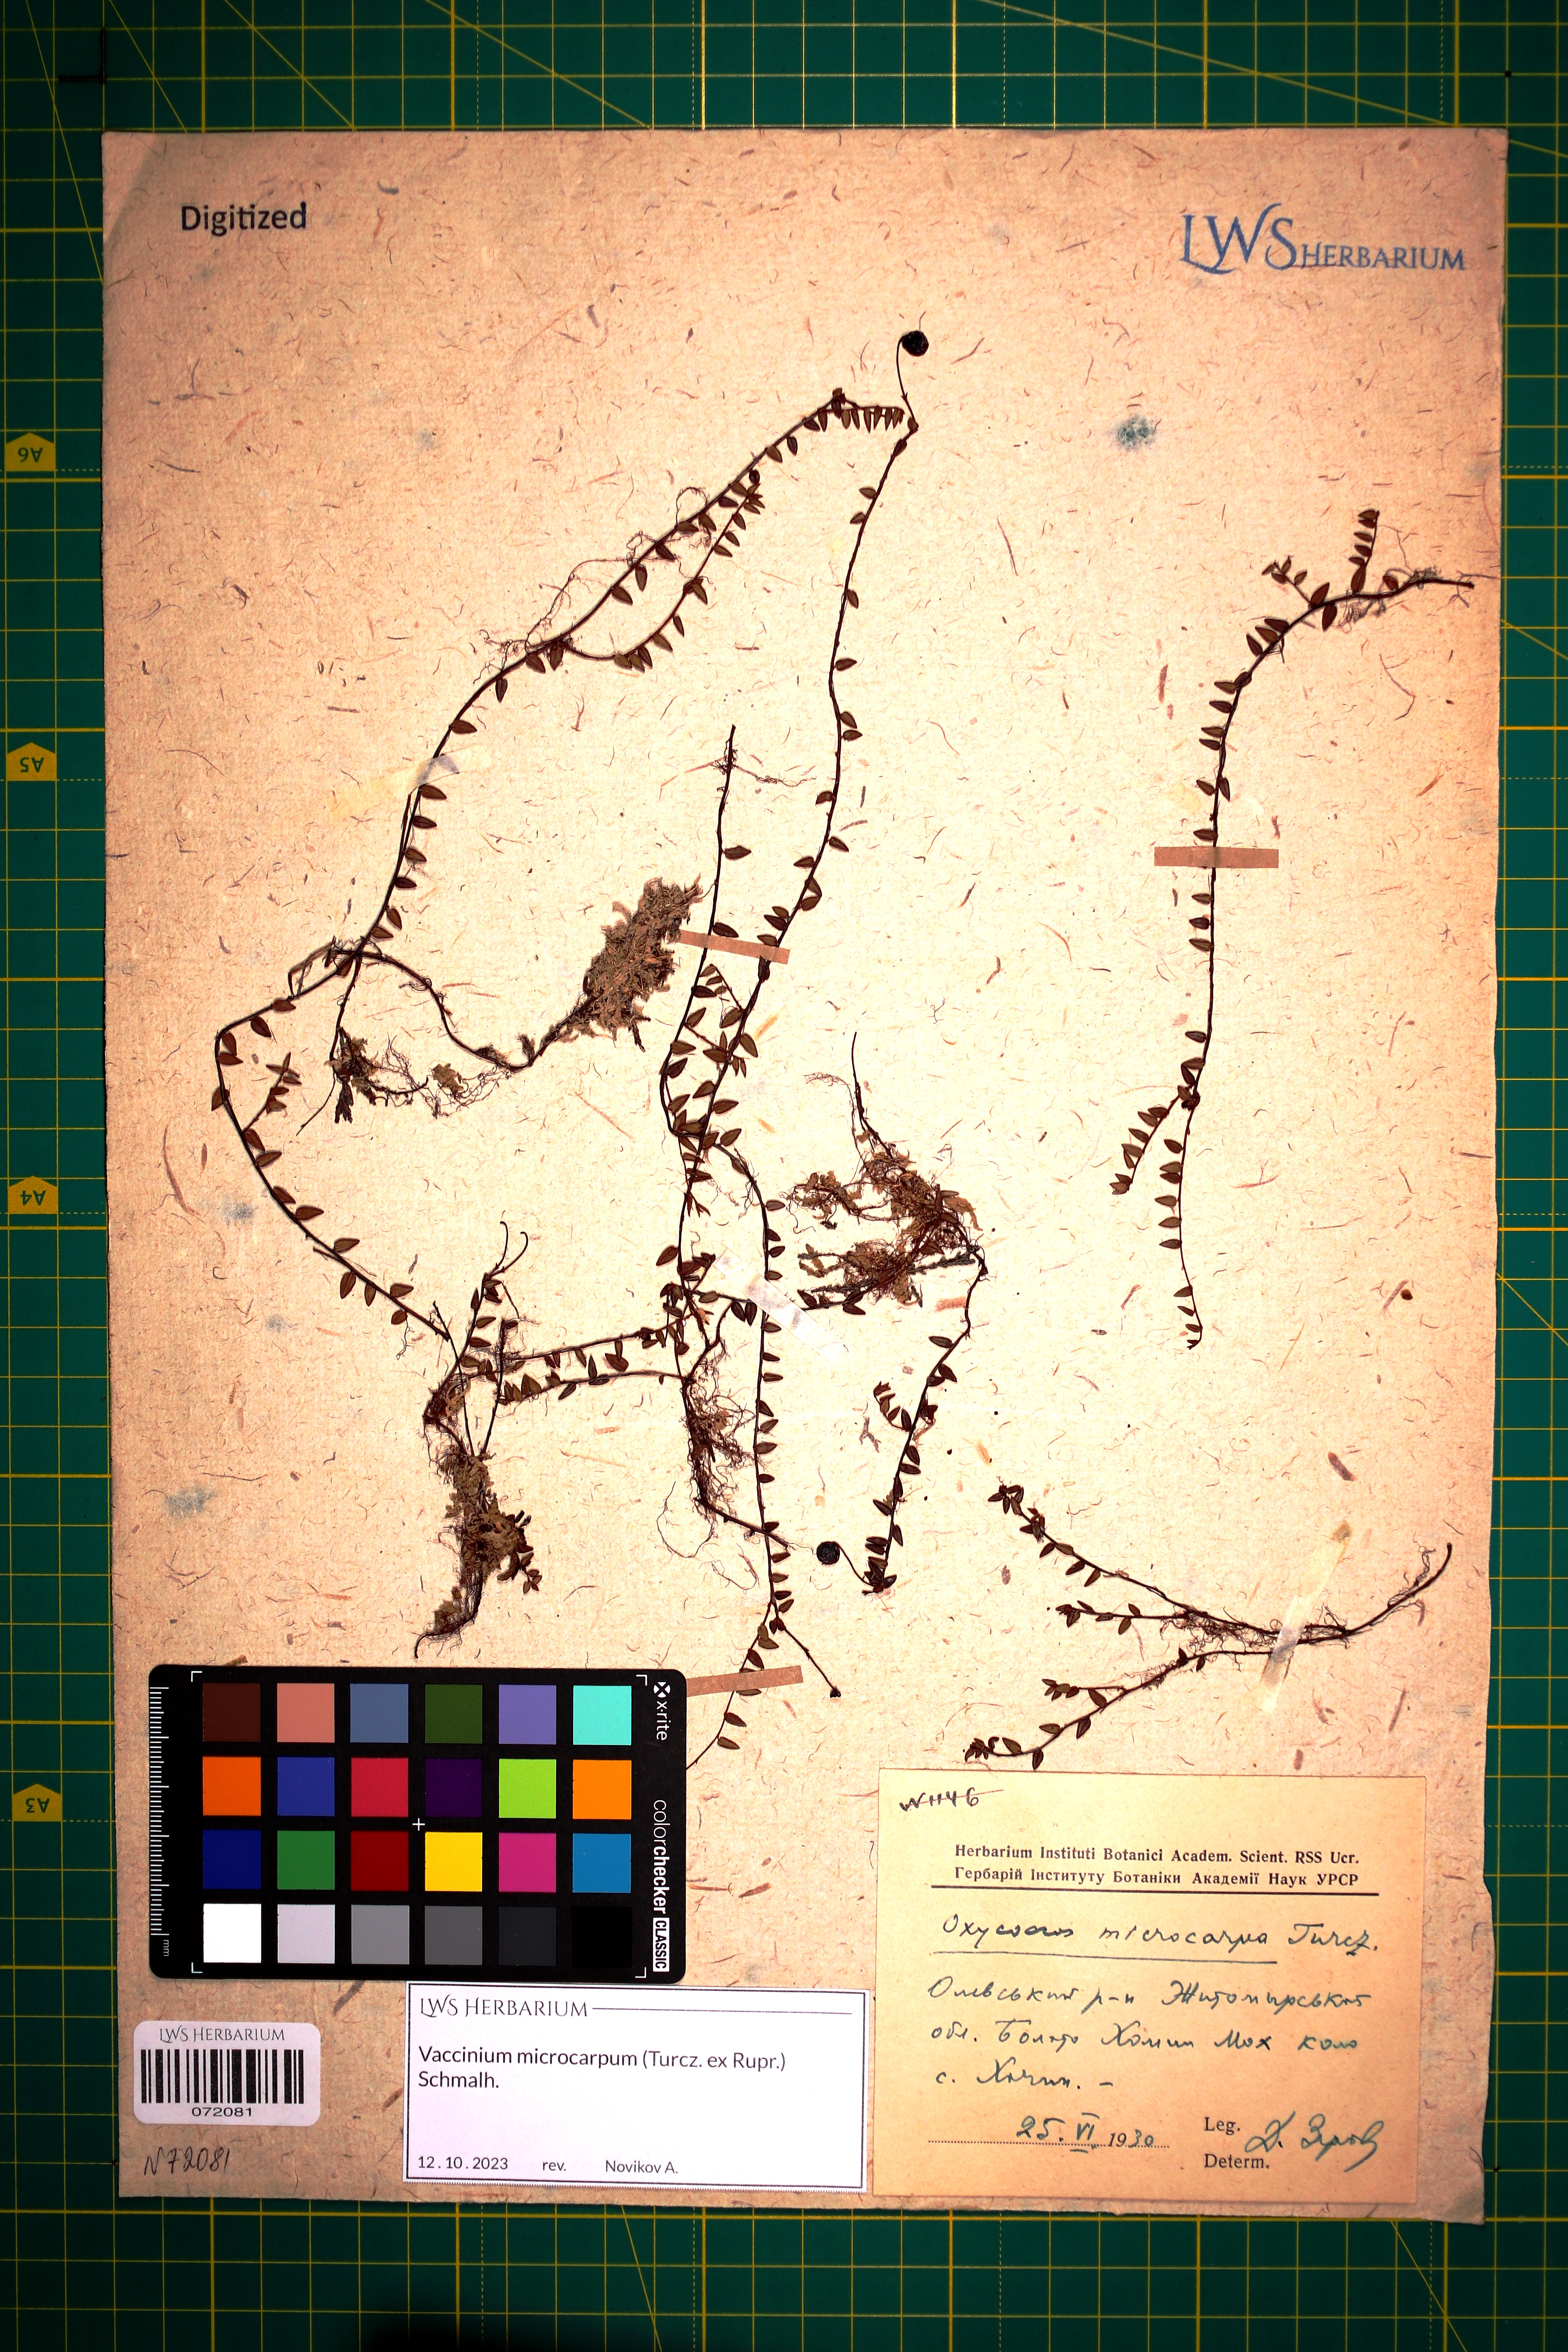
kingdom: Plantae
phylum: Tracheophyta
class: Magnoliopsida
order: Ericales
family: Ericaceae
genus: Vaccinium
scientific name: Vaccinium microcarpum
